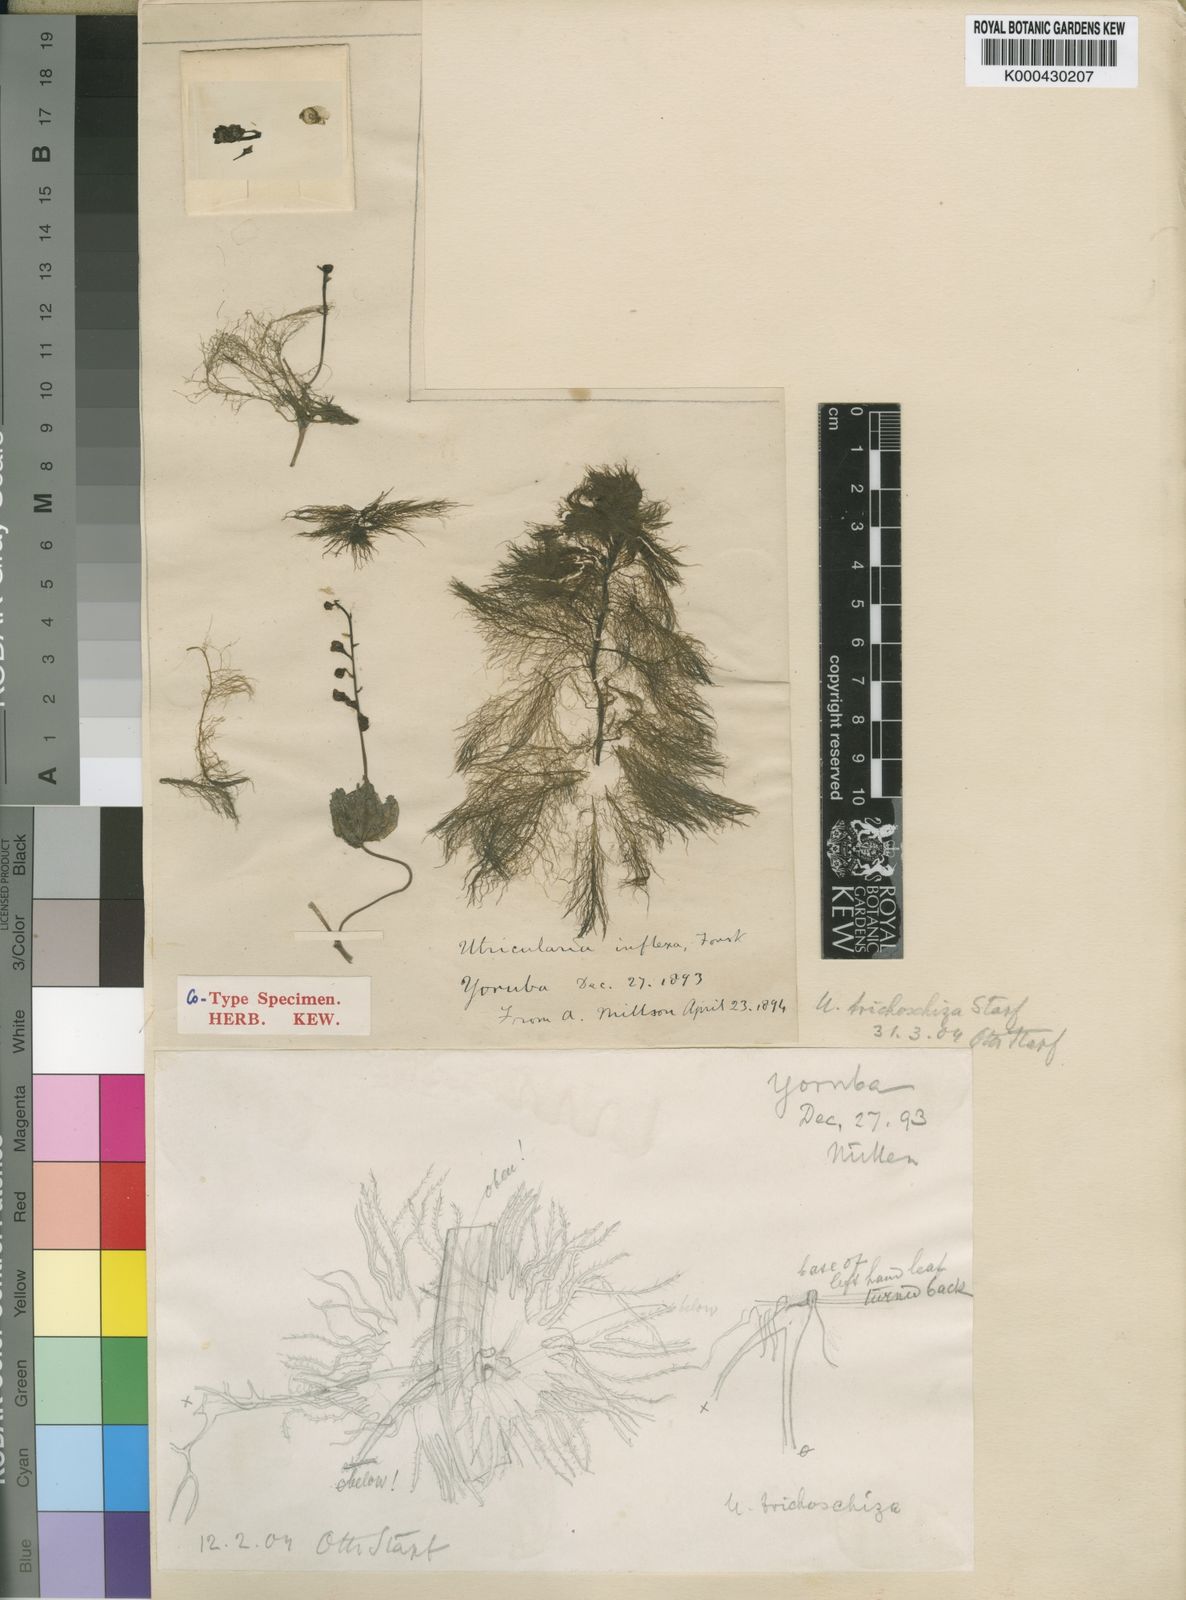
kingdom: Plantae
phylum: Tracheophyta
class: Magnoliopsida
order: Lamiales
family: Lentibulariaceae
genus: Utricularia
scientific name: Utricularia inflexa
